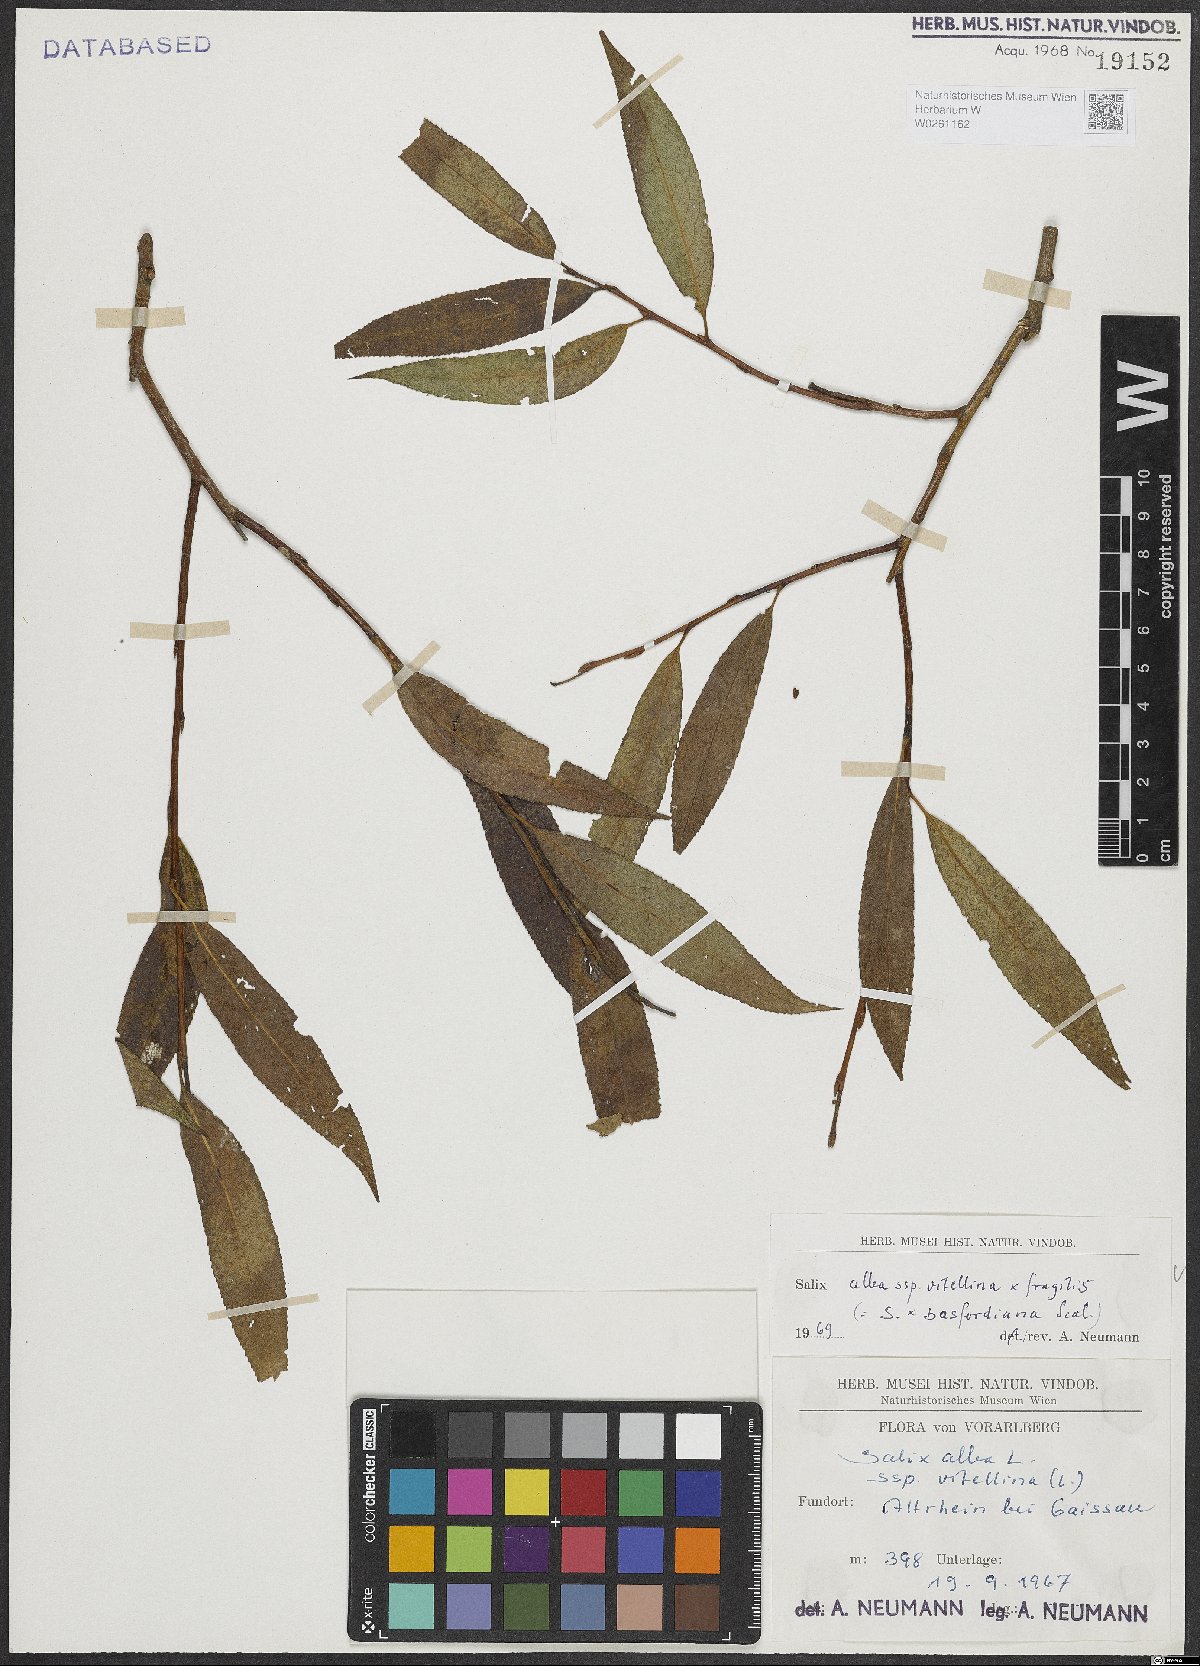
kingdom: Plantae
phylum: Tracheophyta
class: Magnoliopsida
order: Malpighiales
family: Salicaceae
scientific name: Salicaceae
